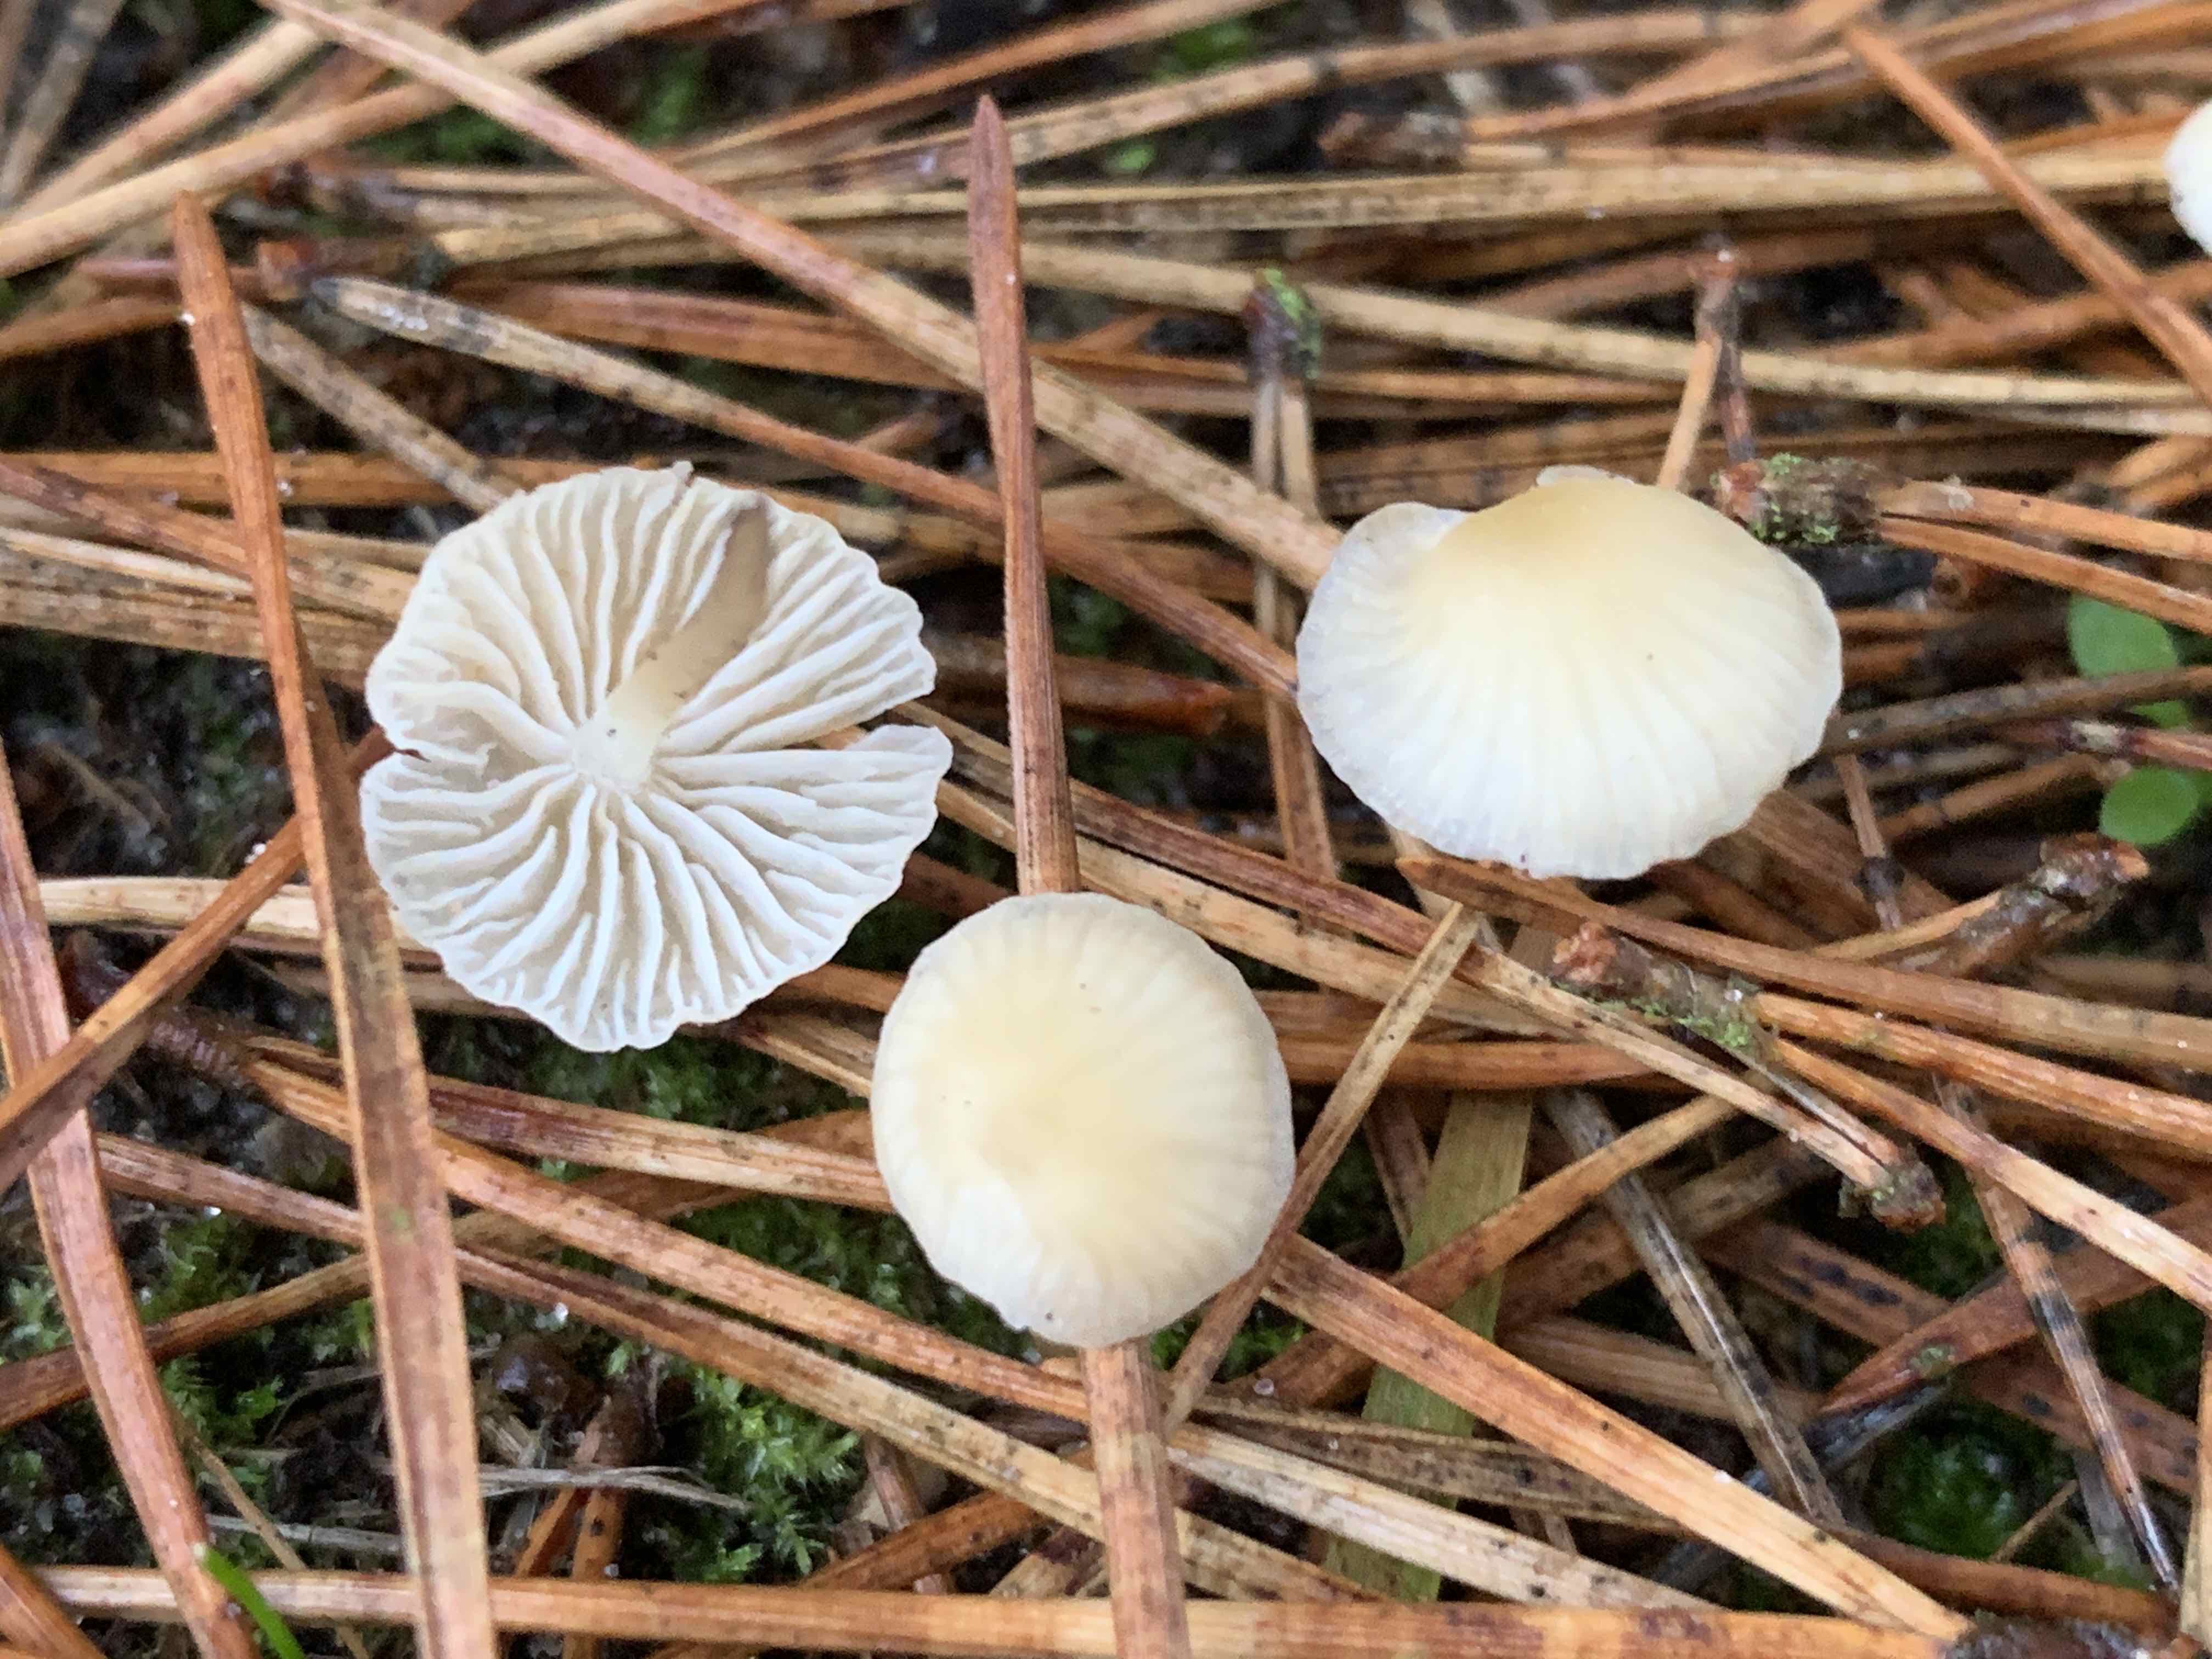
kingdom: Fungi
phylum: Basidiomycota
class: Agaricomycetes
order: Agaricales
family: Mycenaceae
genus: Atheniella
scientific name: Atheniella flavoalba
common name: gulhvid huesvamp
